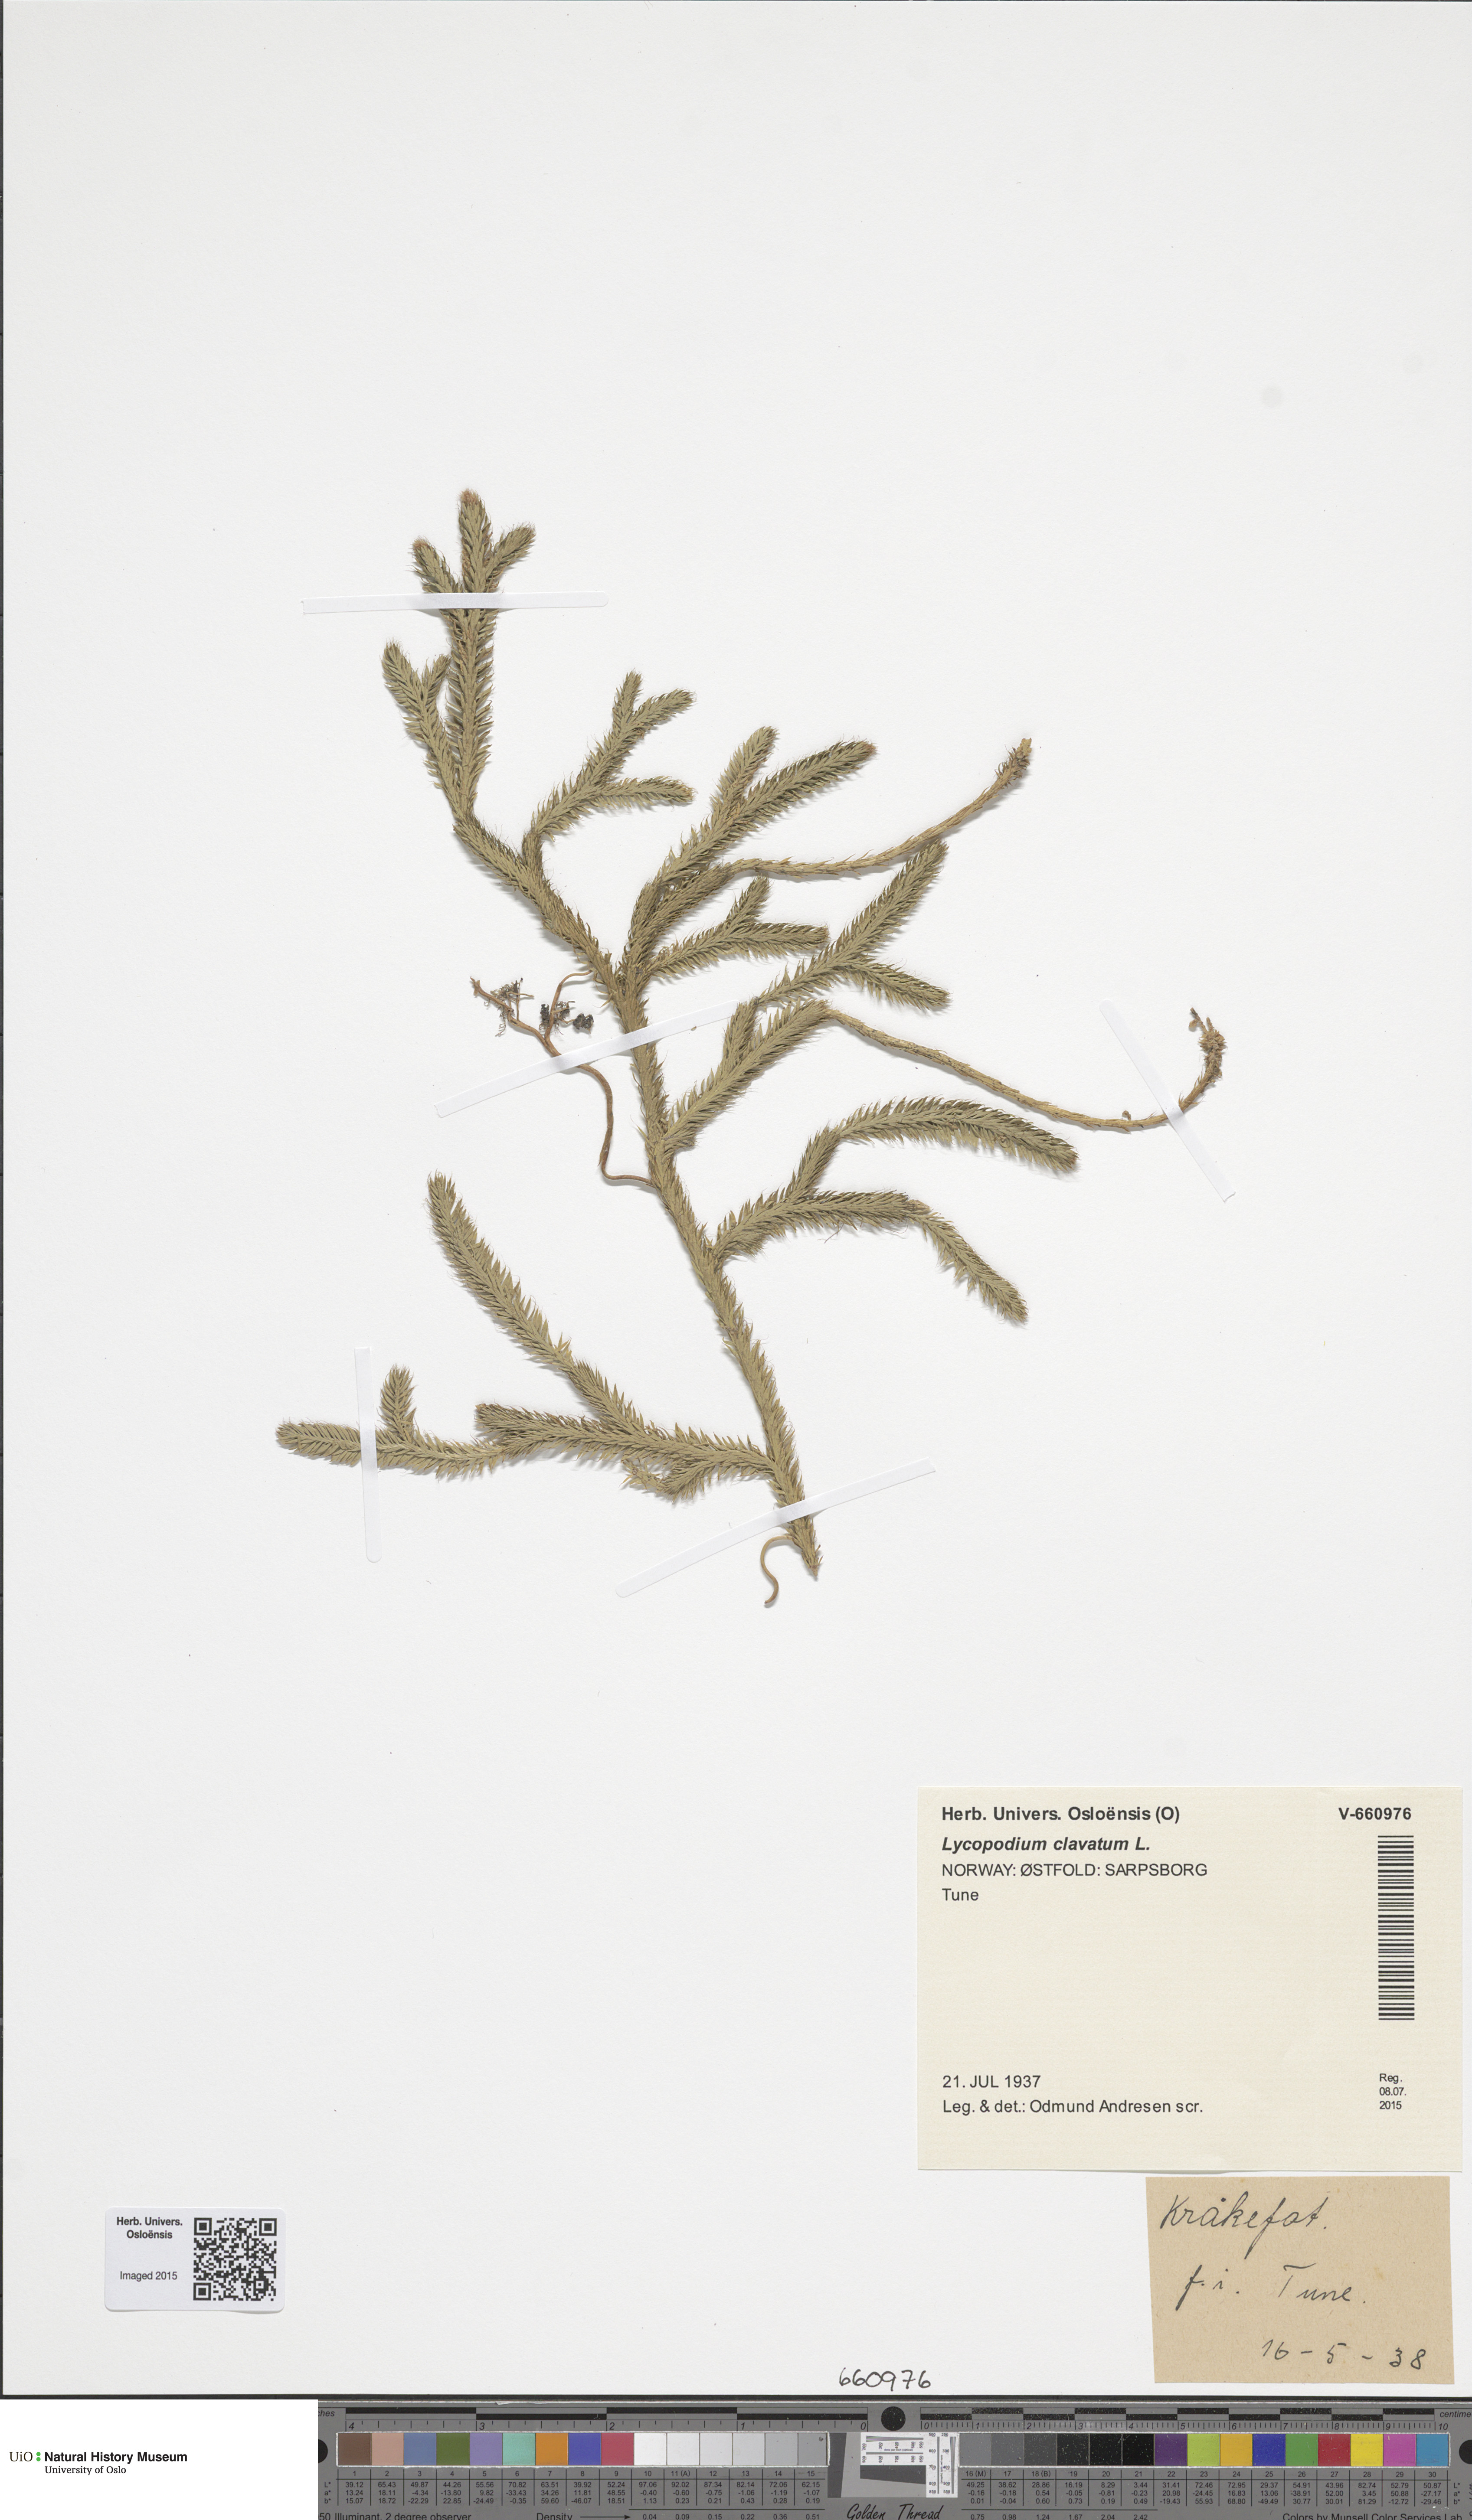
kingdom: Plantae
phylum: Tracheophyta
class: Lycopodiopsida
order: Lycopodiales
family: Lycopodiaceae
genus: Lycopodium
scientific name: Lycopodium clavatum
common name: Stag's-horn clubmoss
